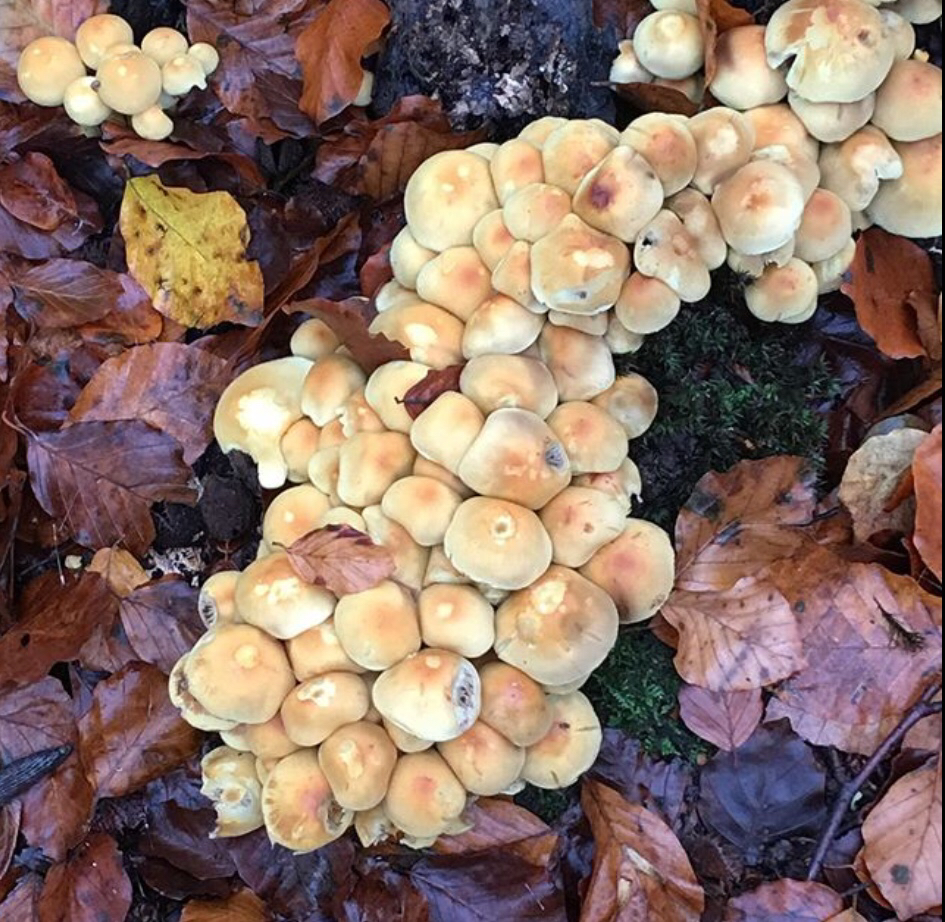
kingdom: Fungi
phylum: Basidiomycota
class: Agaricomycetes
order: Agaricales
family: Strophariaceae
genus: Hypholoma
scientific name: Hypholoma fasciculare
